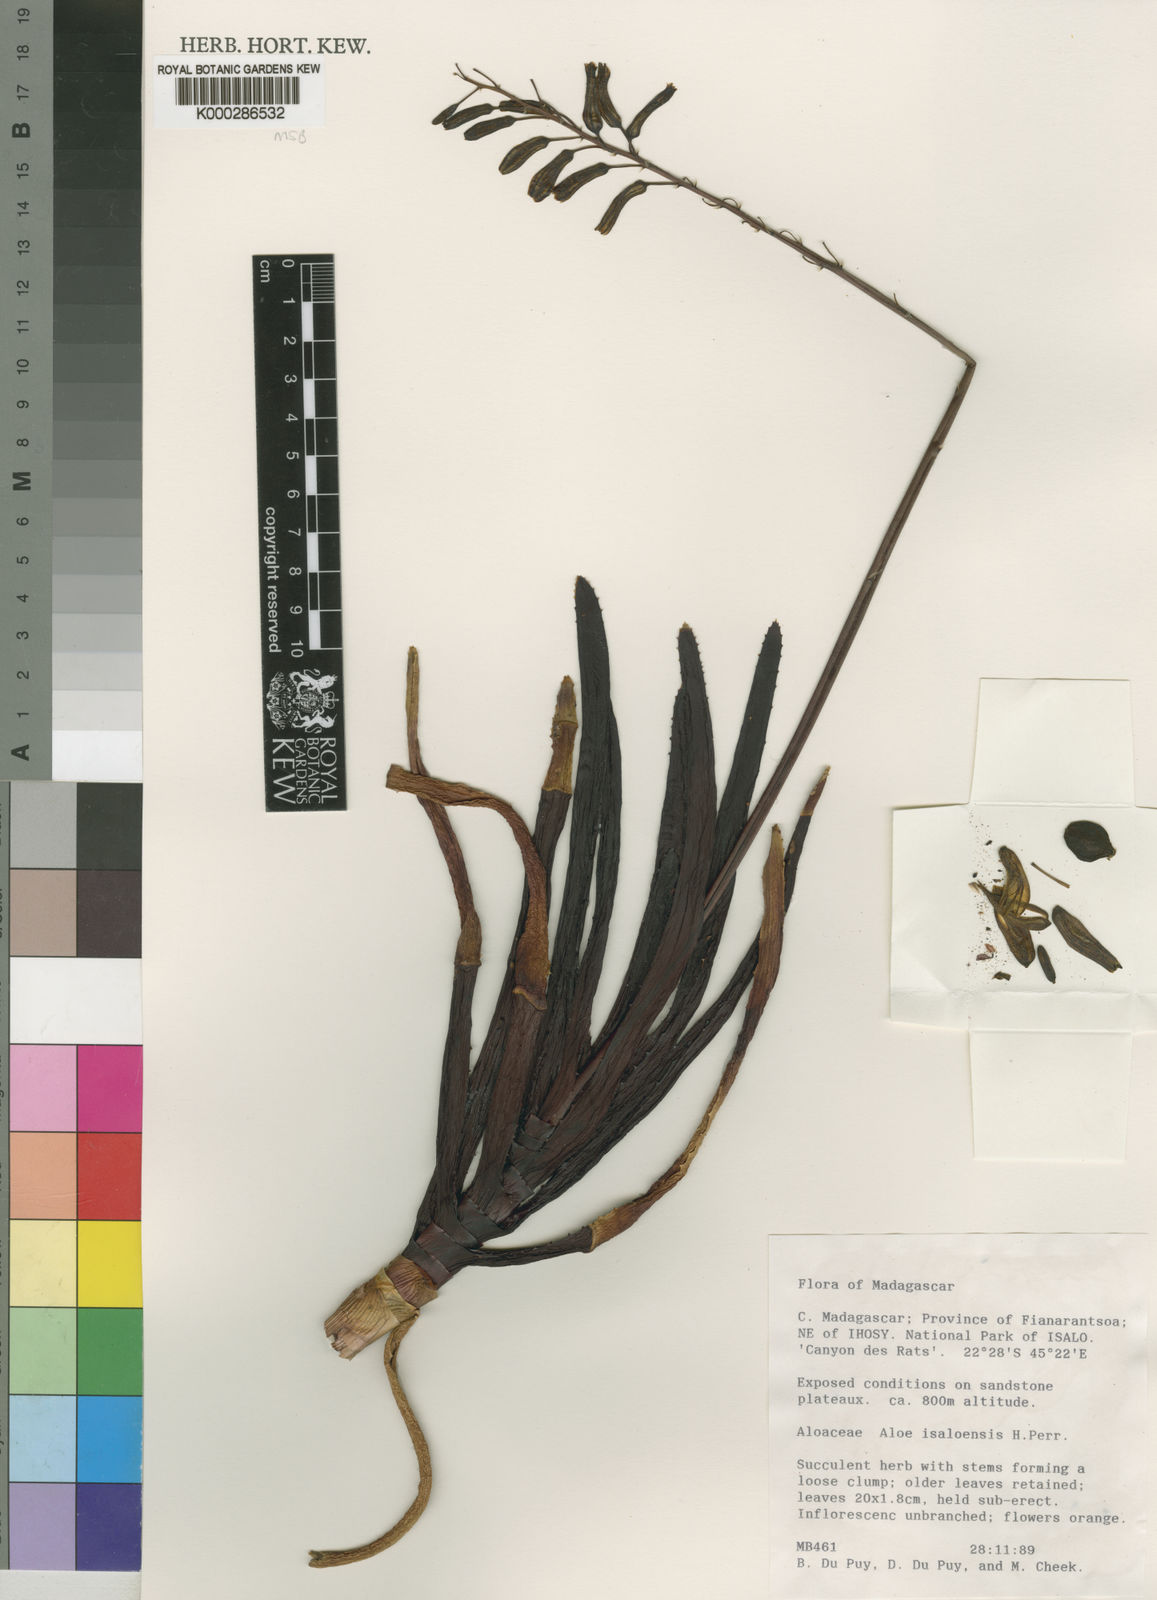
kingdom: Plantae
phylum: Tracheophyta
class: Liliopsida
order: Asparagales
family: Asphodelaceae
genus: Aloe
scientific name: Aloe
